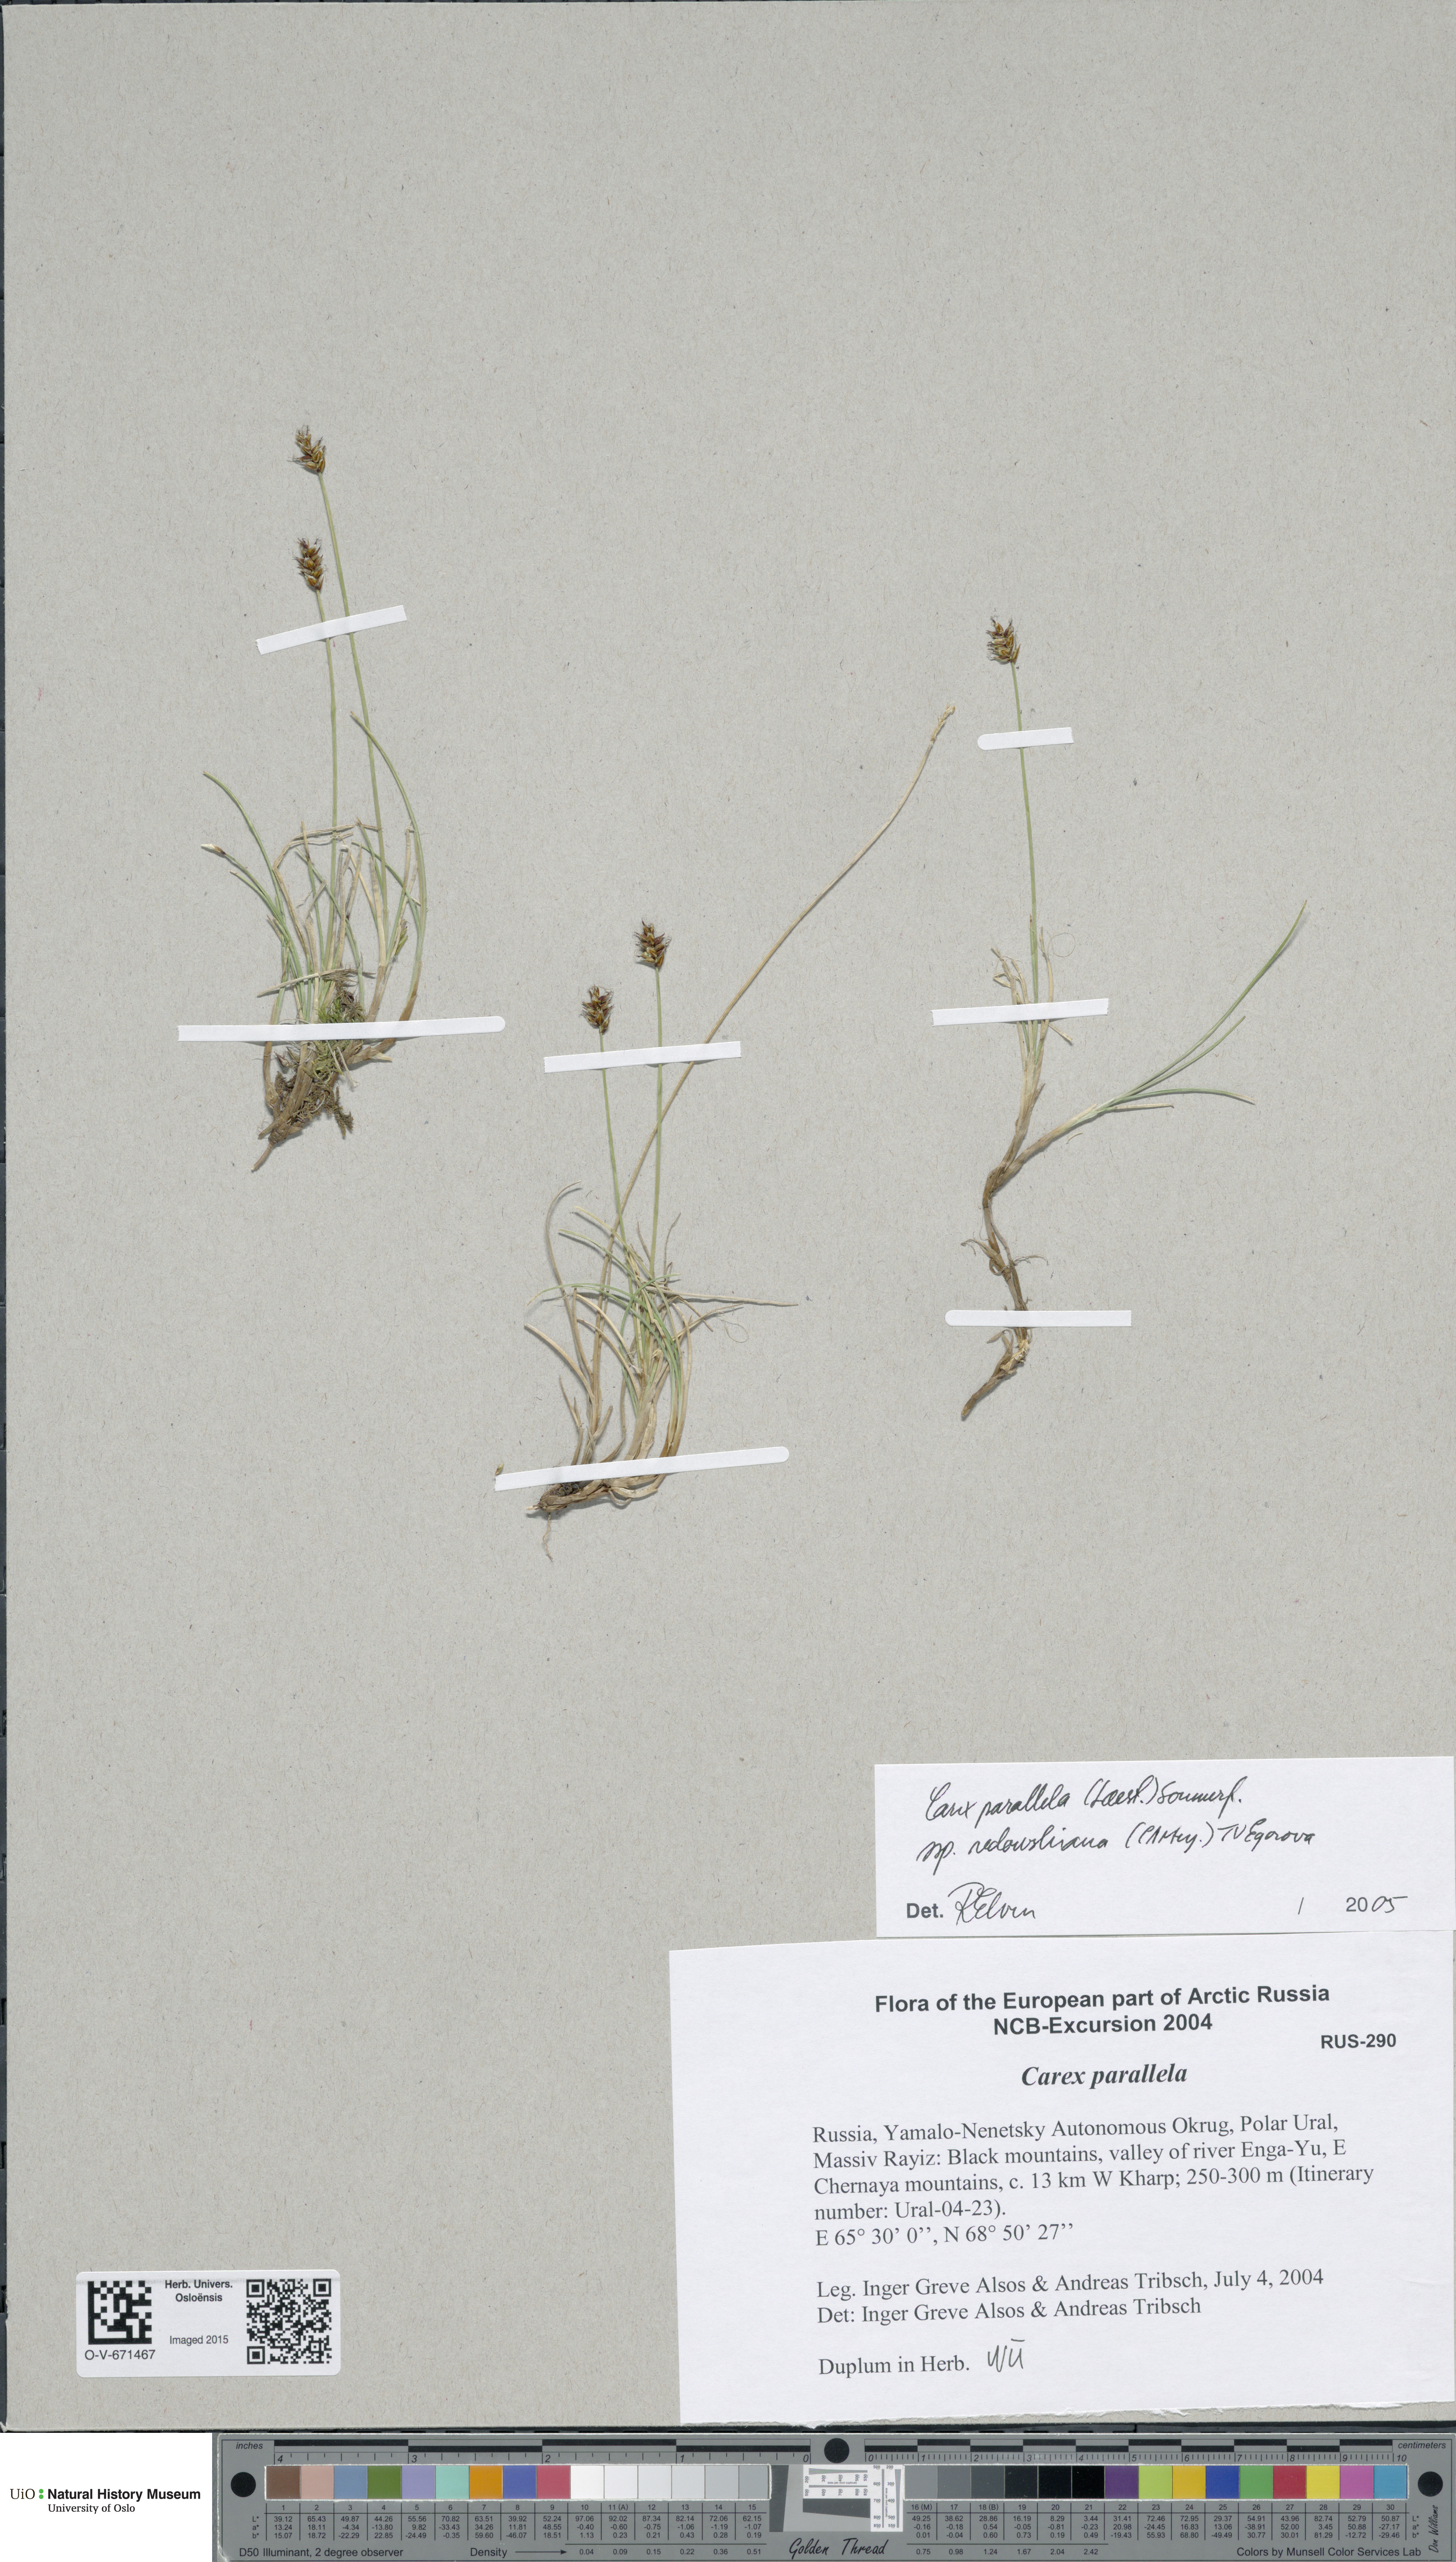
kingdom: Plantae
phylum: Tracheophyta
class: Liliopsida
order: Poales
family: Cyperaceae
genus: Carex
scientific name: Carex parallela
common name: Parallel sedge
